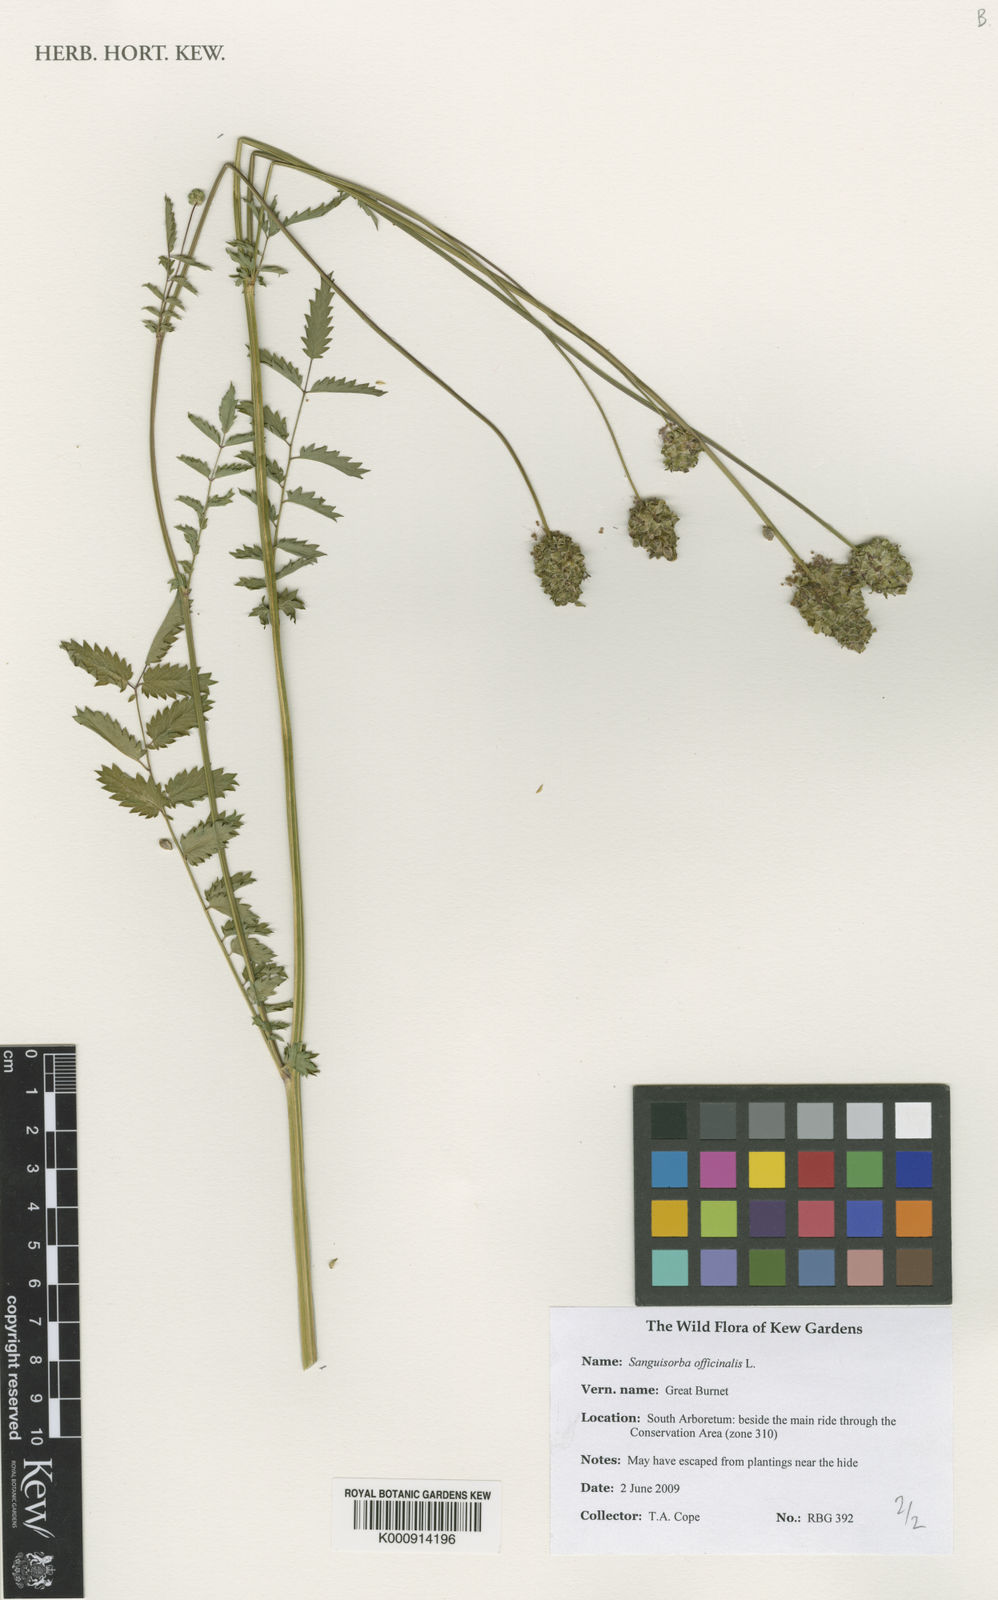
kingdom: Plantae
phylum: Tracheophyta
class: Magnoliopsida
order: Rosales
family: Rosaceae
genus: Sanguisorba
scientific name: Sanguisorba officinalis
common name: Great burnet
